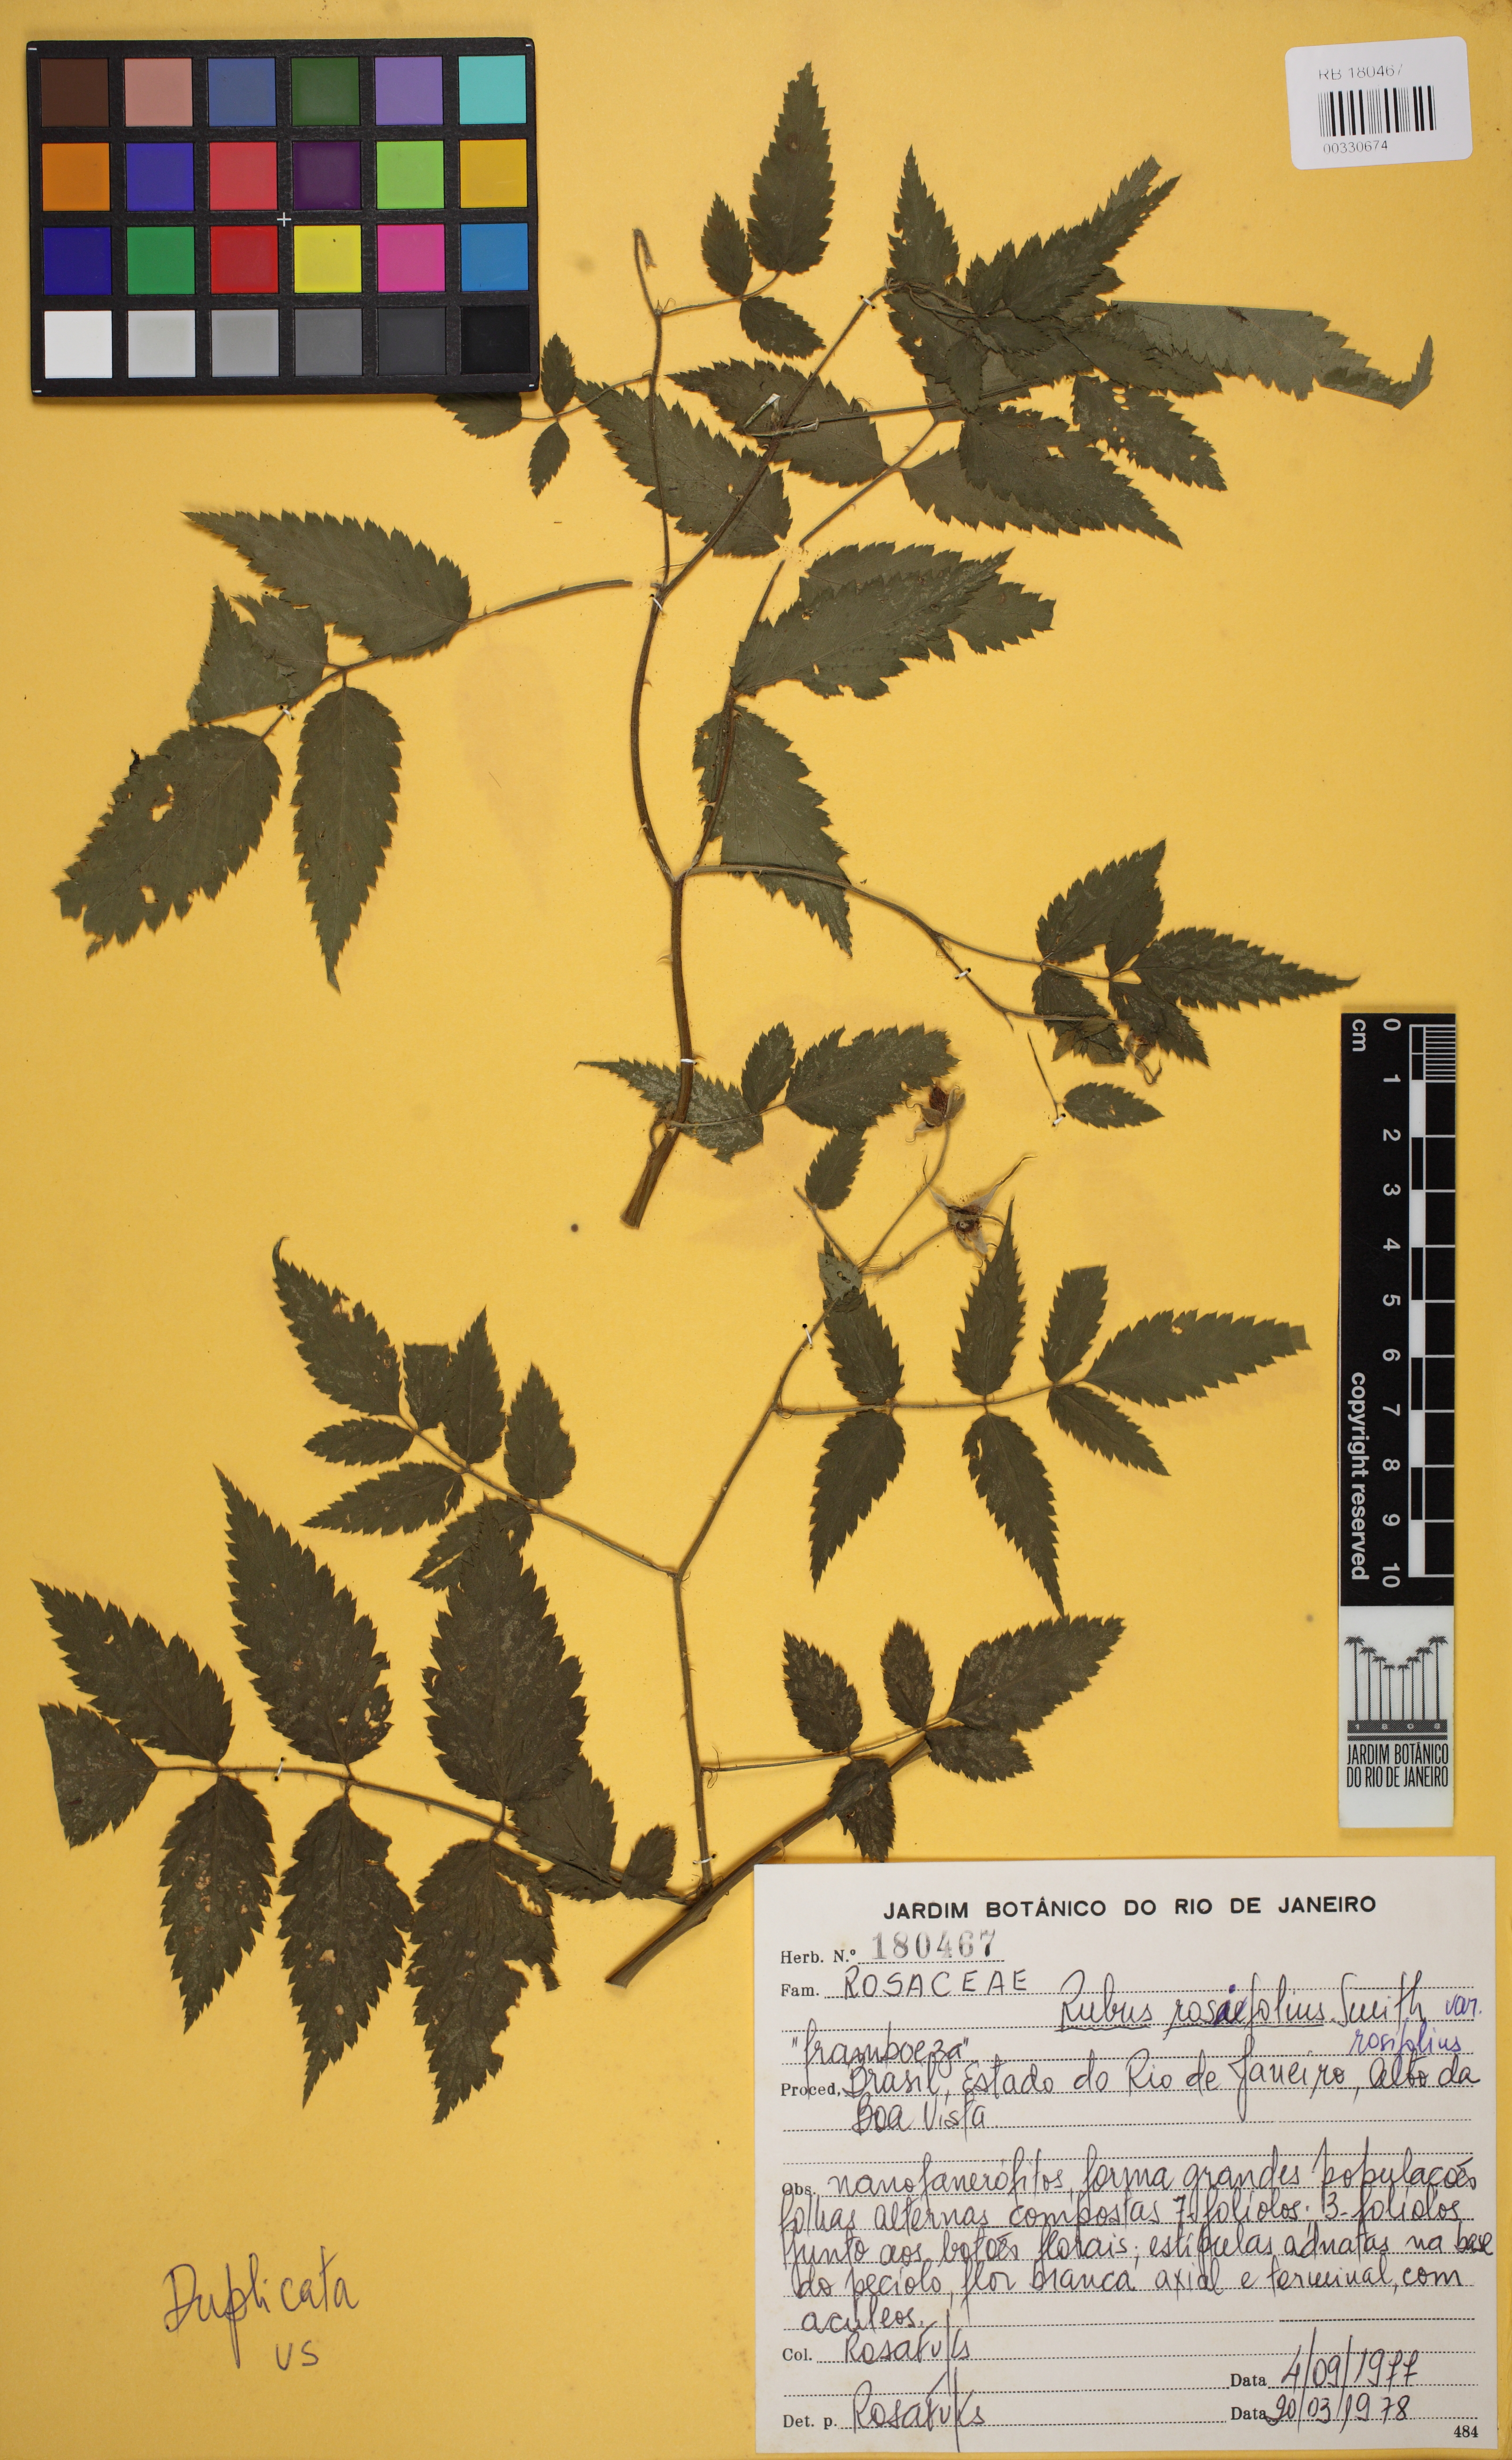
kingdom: Plantae
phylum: Tracheophyta
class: Magnoliopsida
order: Rosales
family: Rosaceae
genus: Rubus
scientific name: Rubus rosifolius
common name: Roseleaf raspberry
